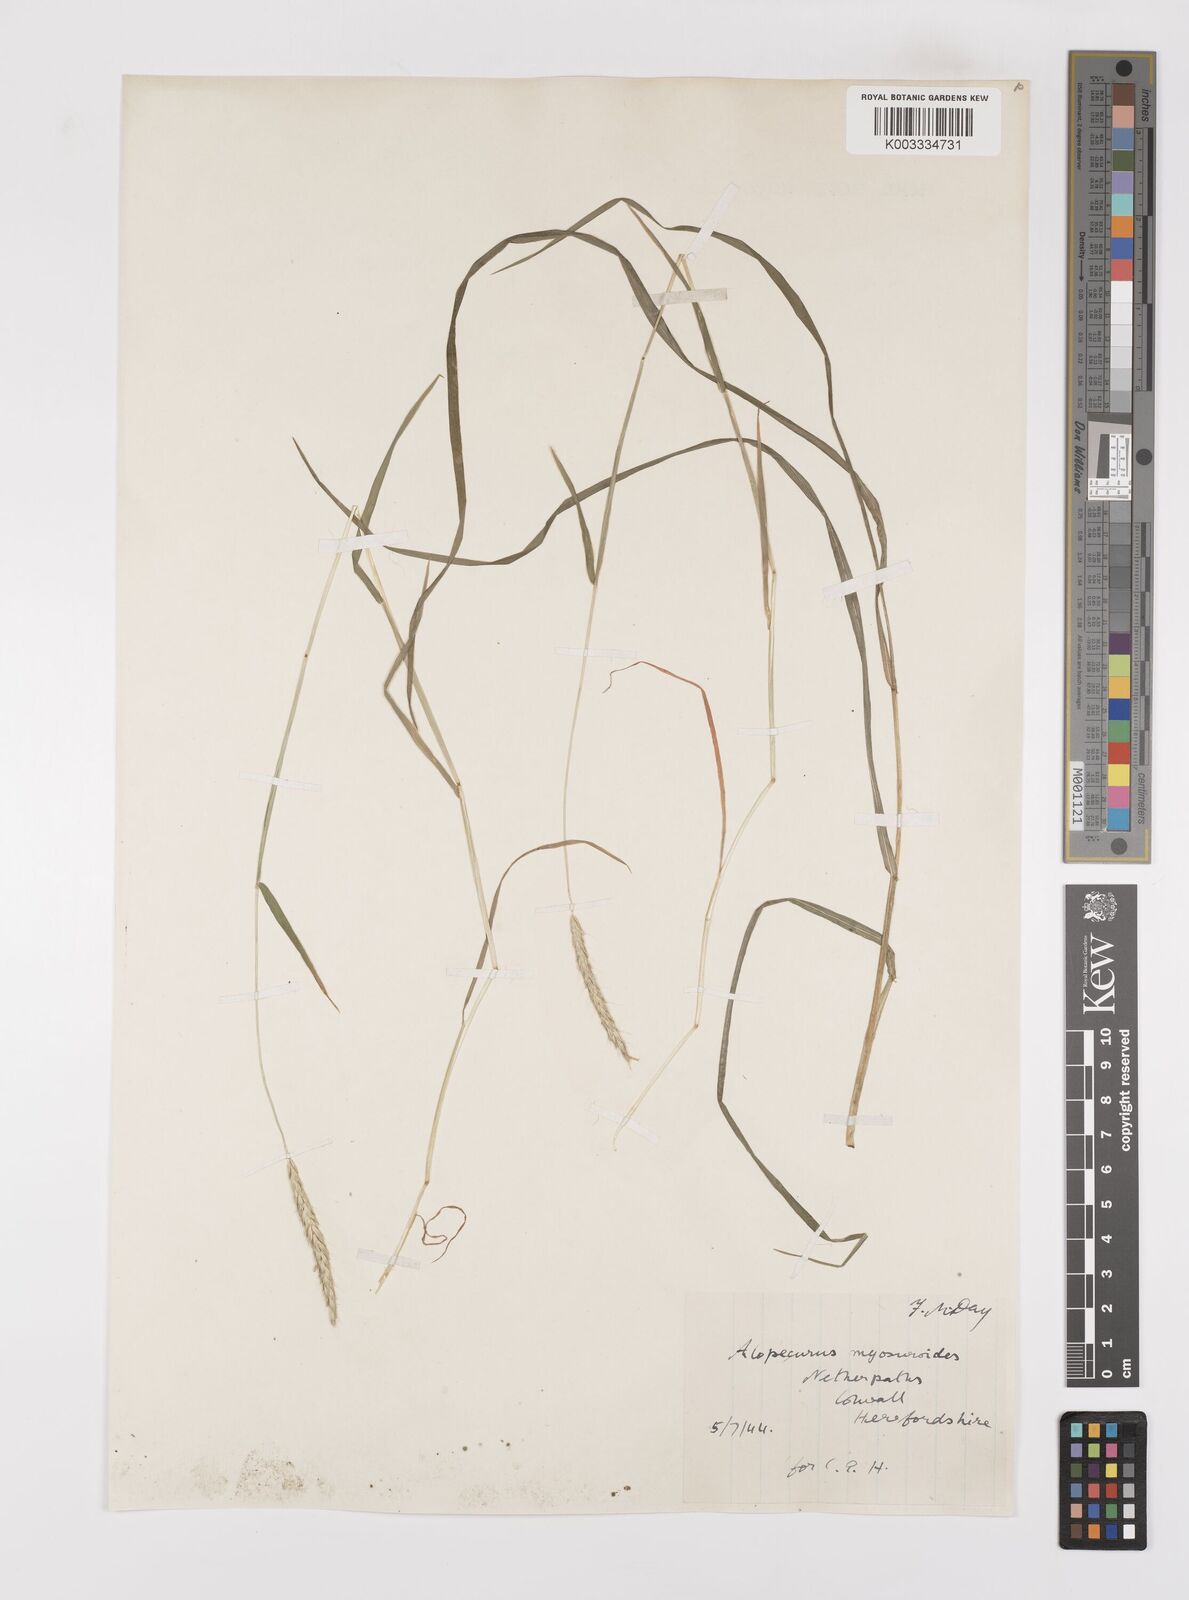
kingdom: Plantae
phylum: Tracheophyta
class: Liliopsida
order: Poales
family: Poaceae
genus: Alopecurus
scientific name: Alopecurus myosuroides
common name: Black-grass
